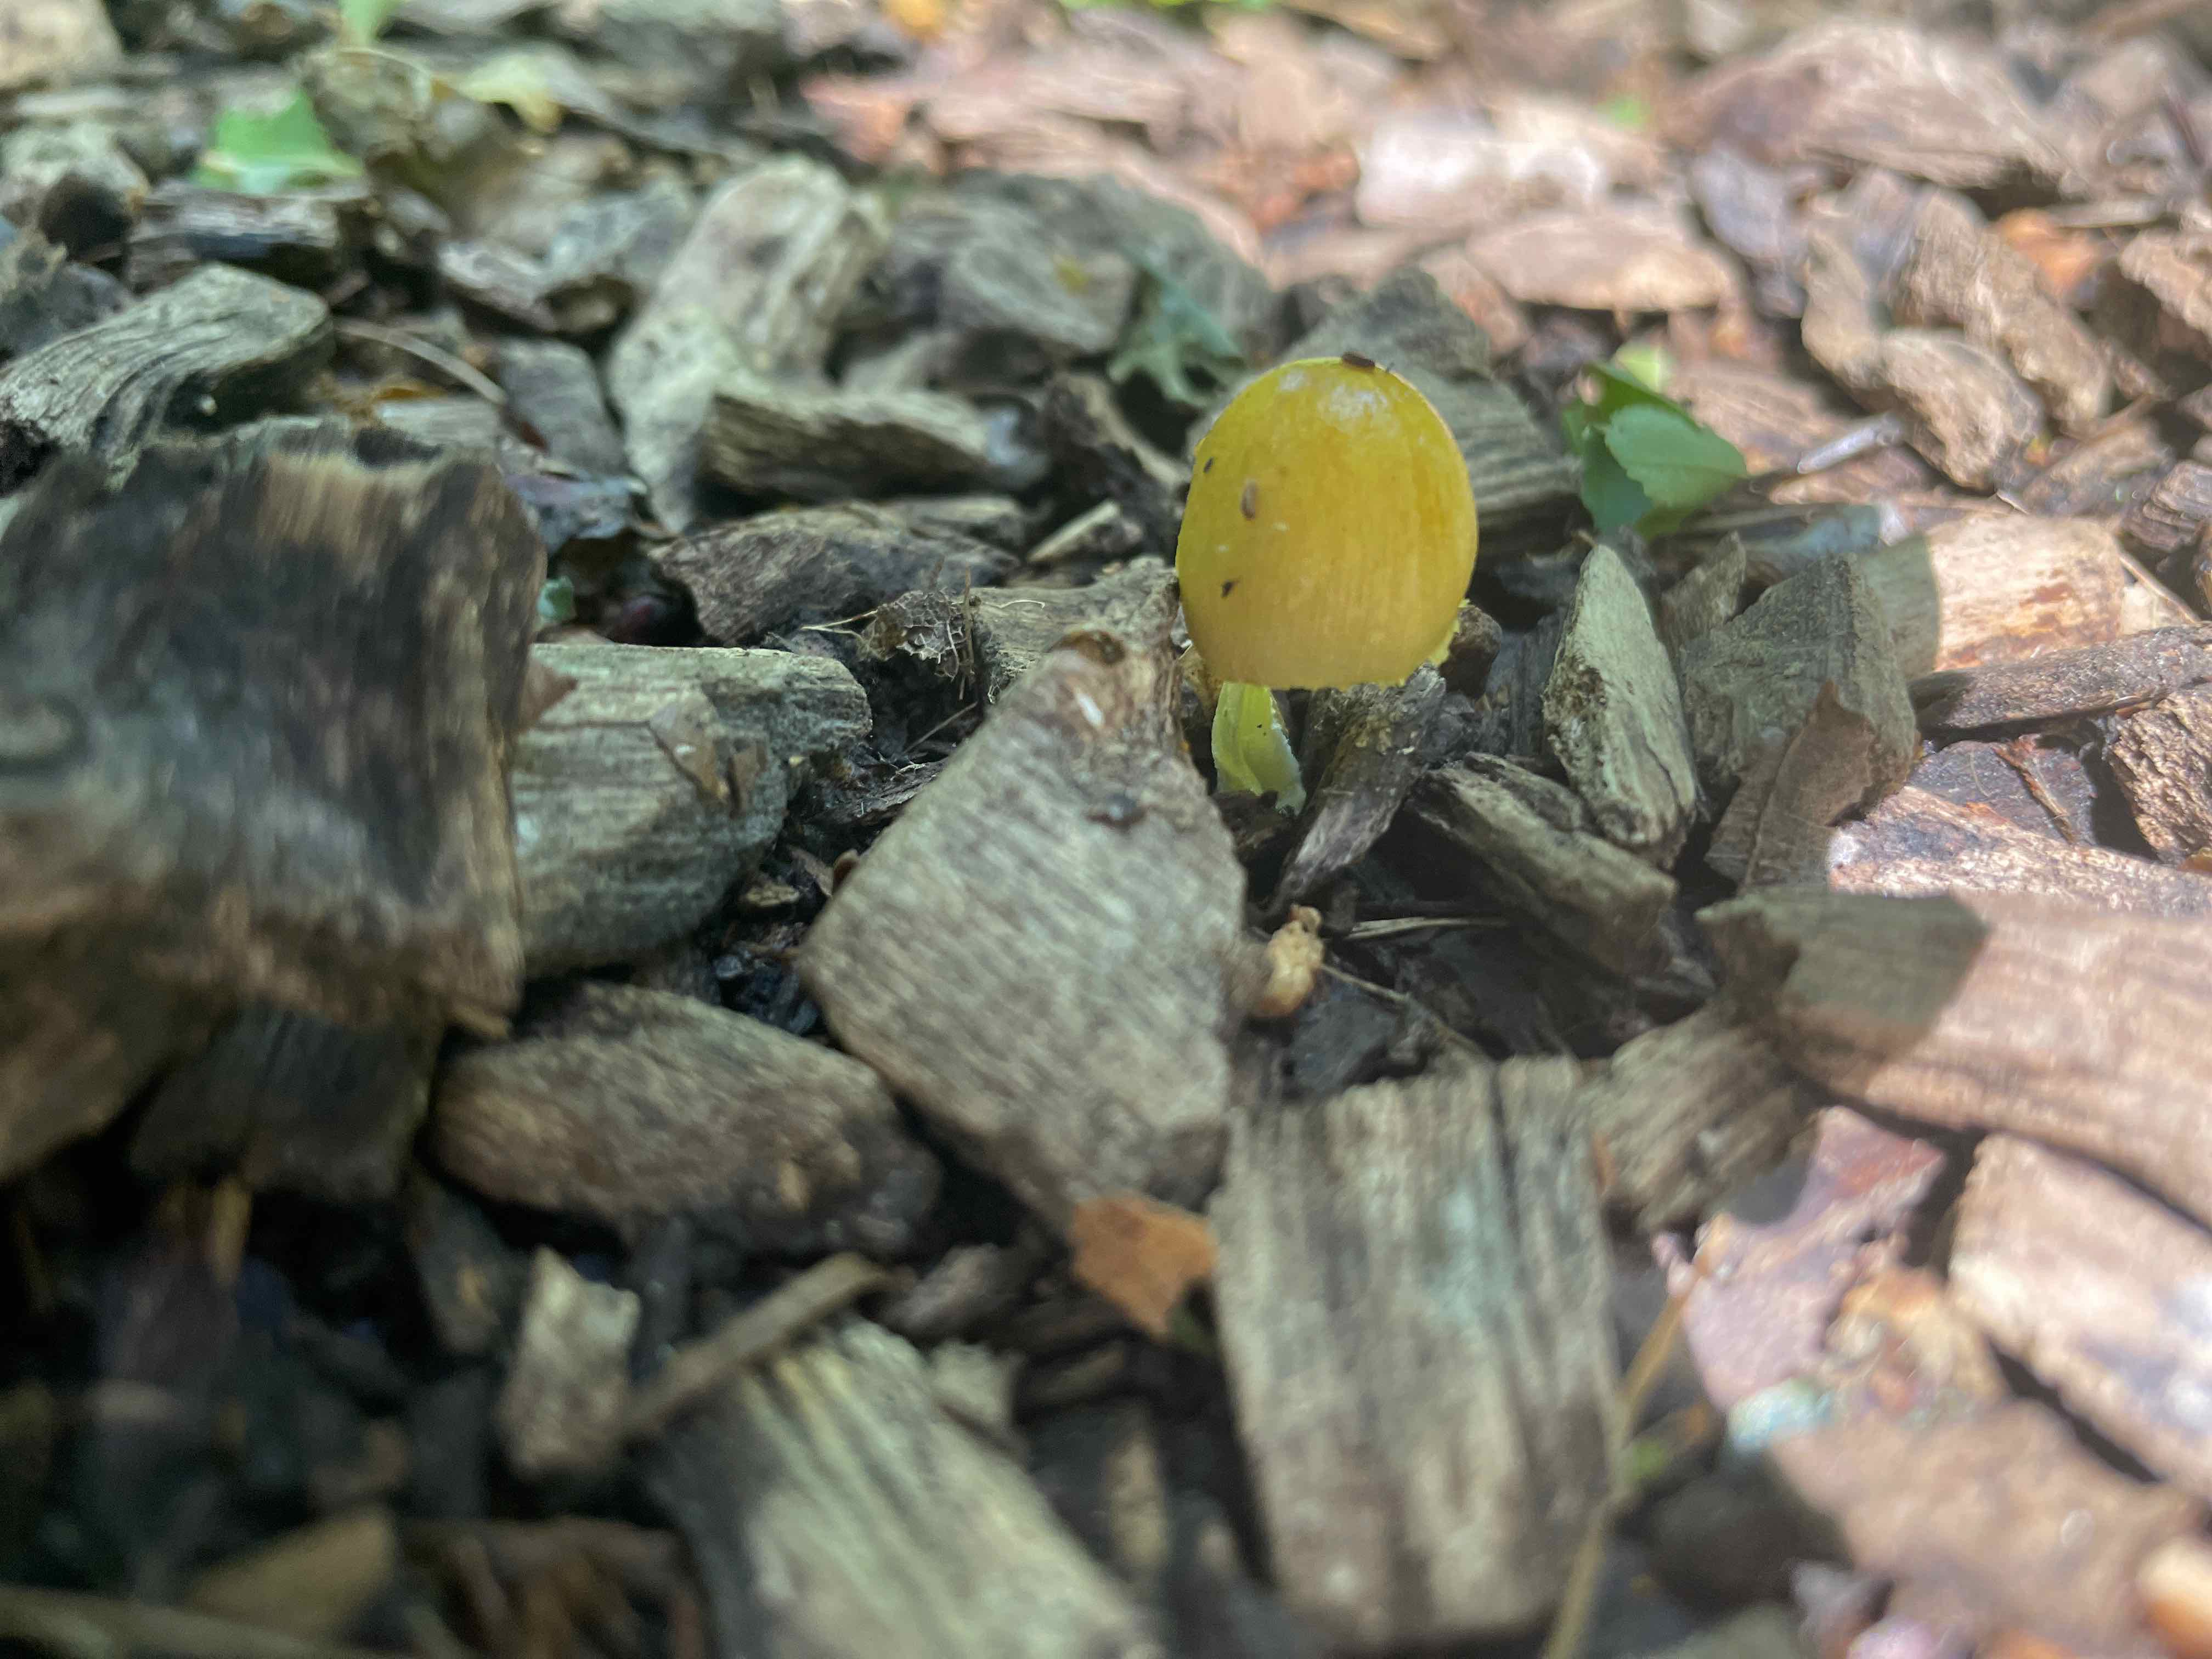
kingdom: Fungi
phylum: Basidiomycota
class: Agaricomycetes
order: Agaricales
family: Bolbitiaceae
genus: Bolbitius
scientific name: Bolbitius titubans
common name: almindelig gulhat
